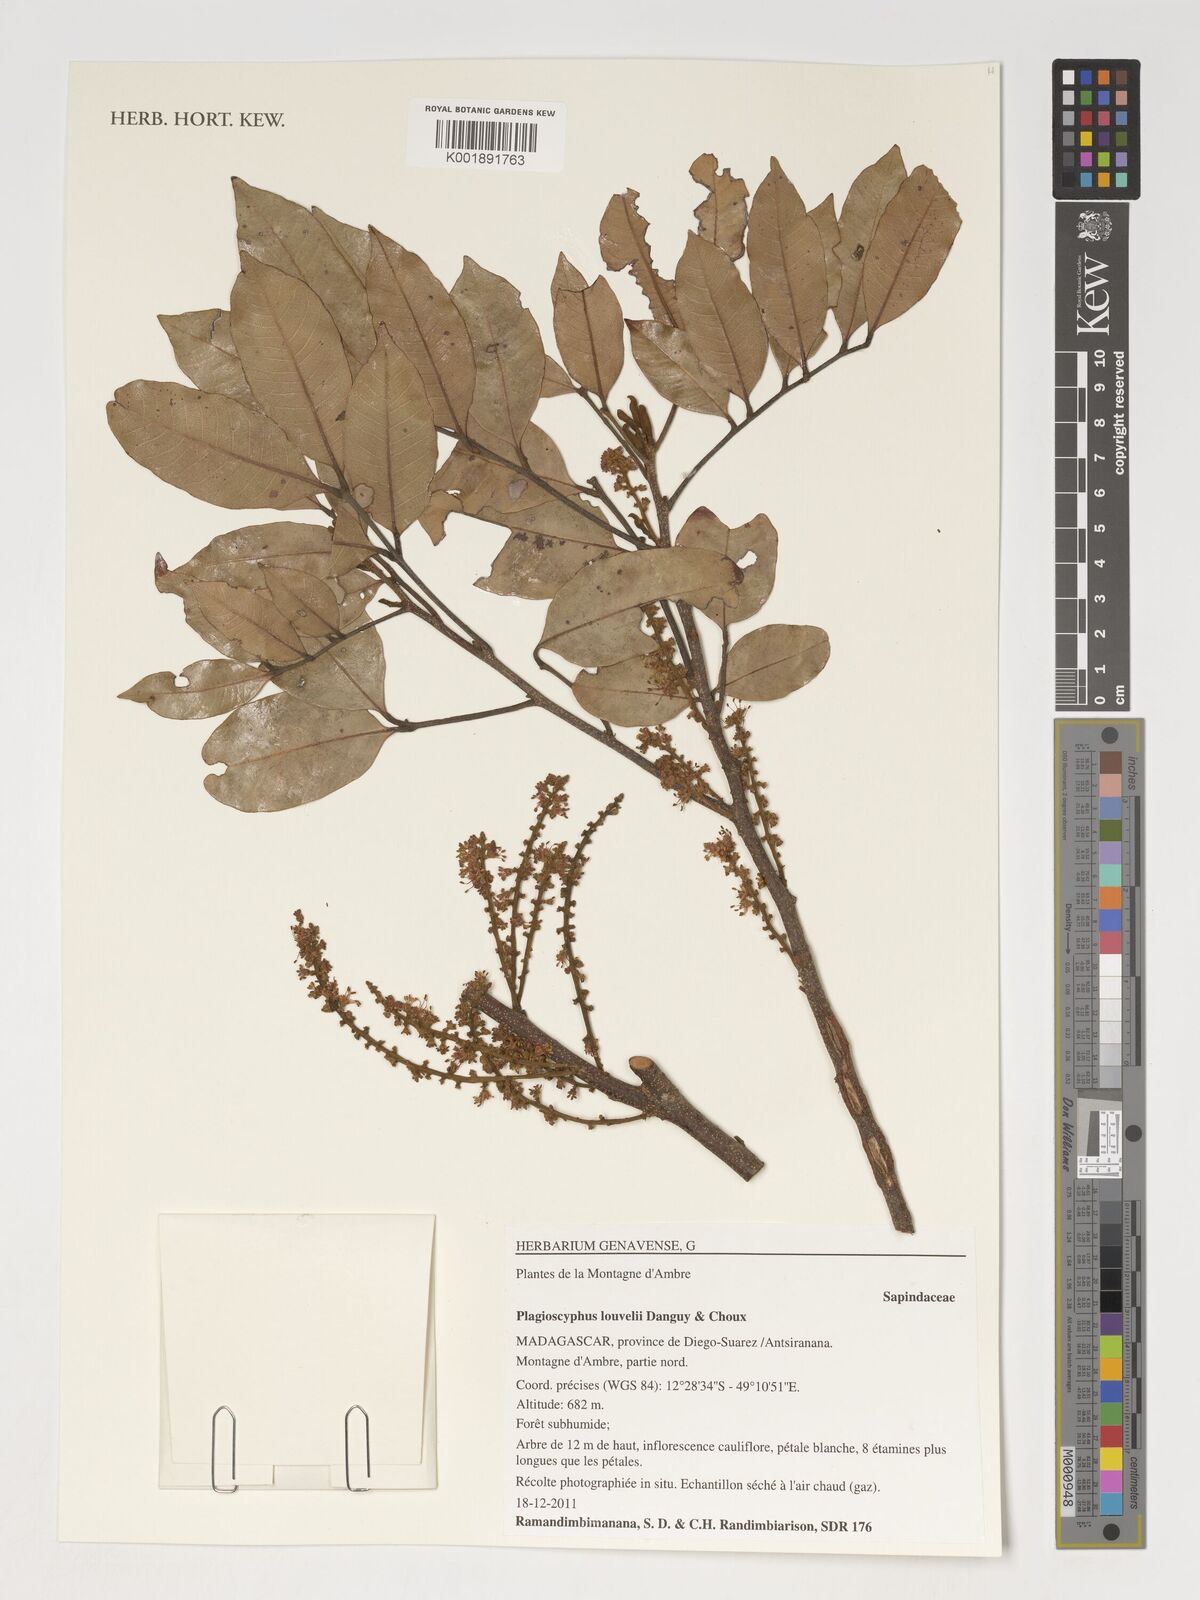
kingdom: Plantae
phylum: Tracheophyta
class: Magnoliopsida
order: Sapindales
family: Sapindaceae
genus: Plagioscyphus
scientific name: Plagioscyphus louvelii
